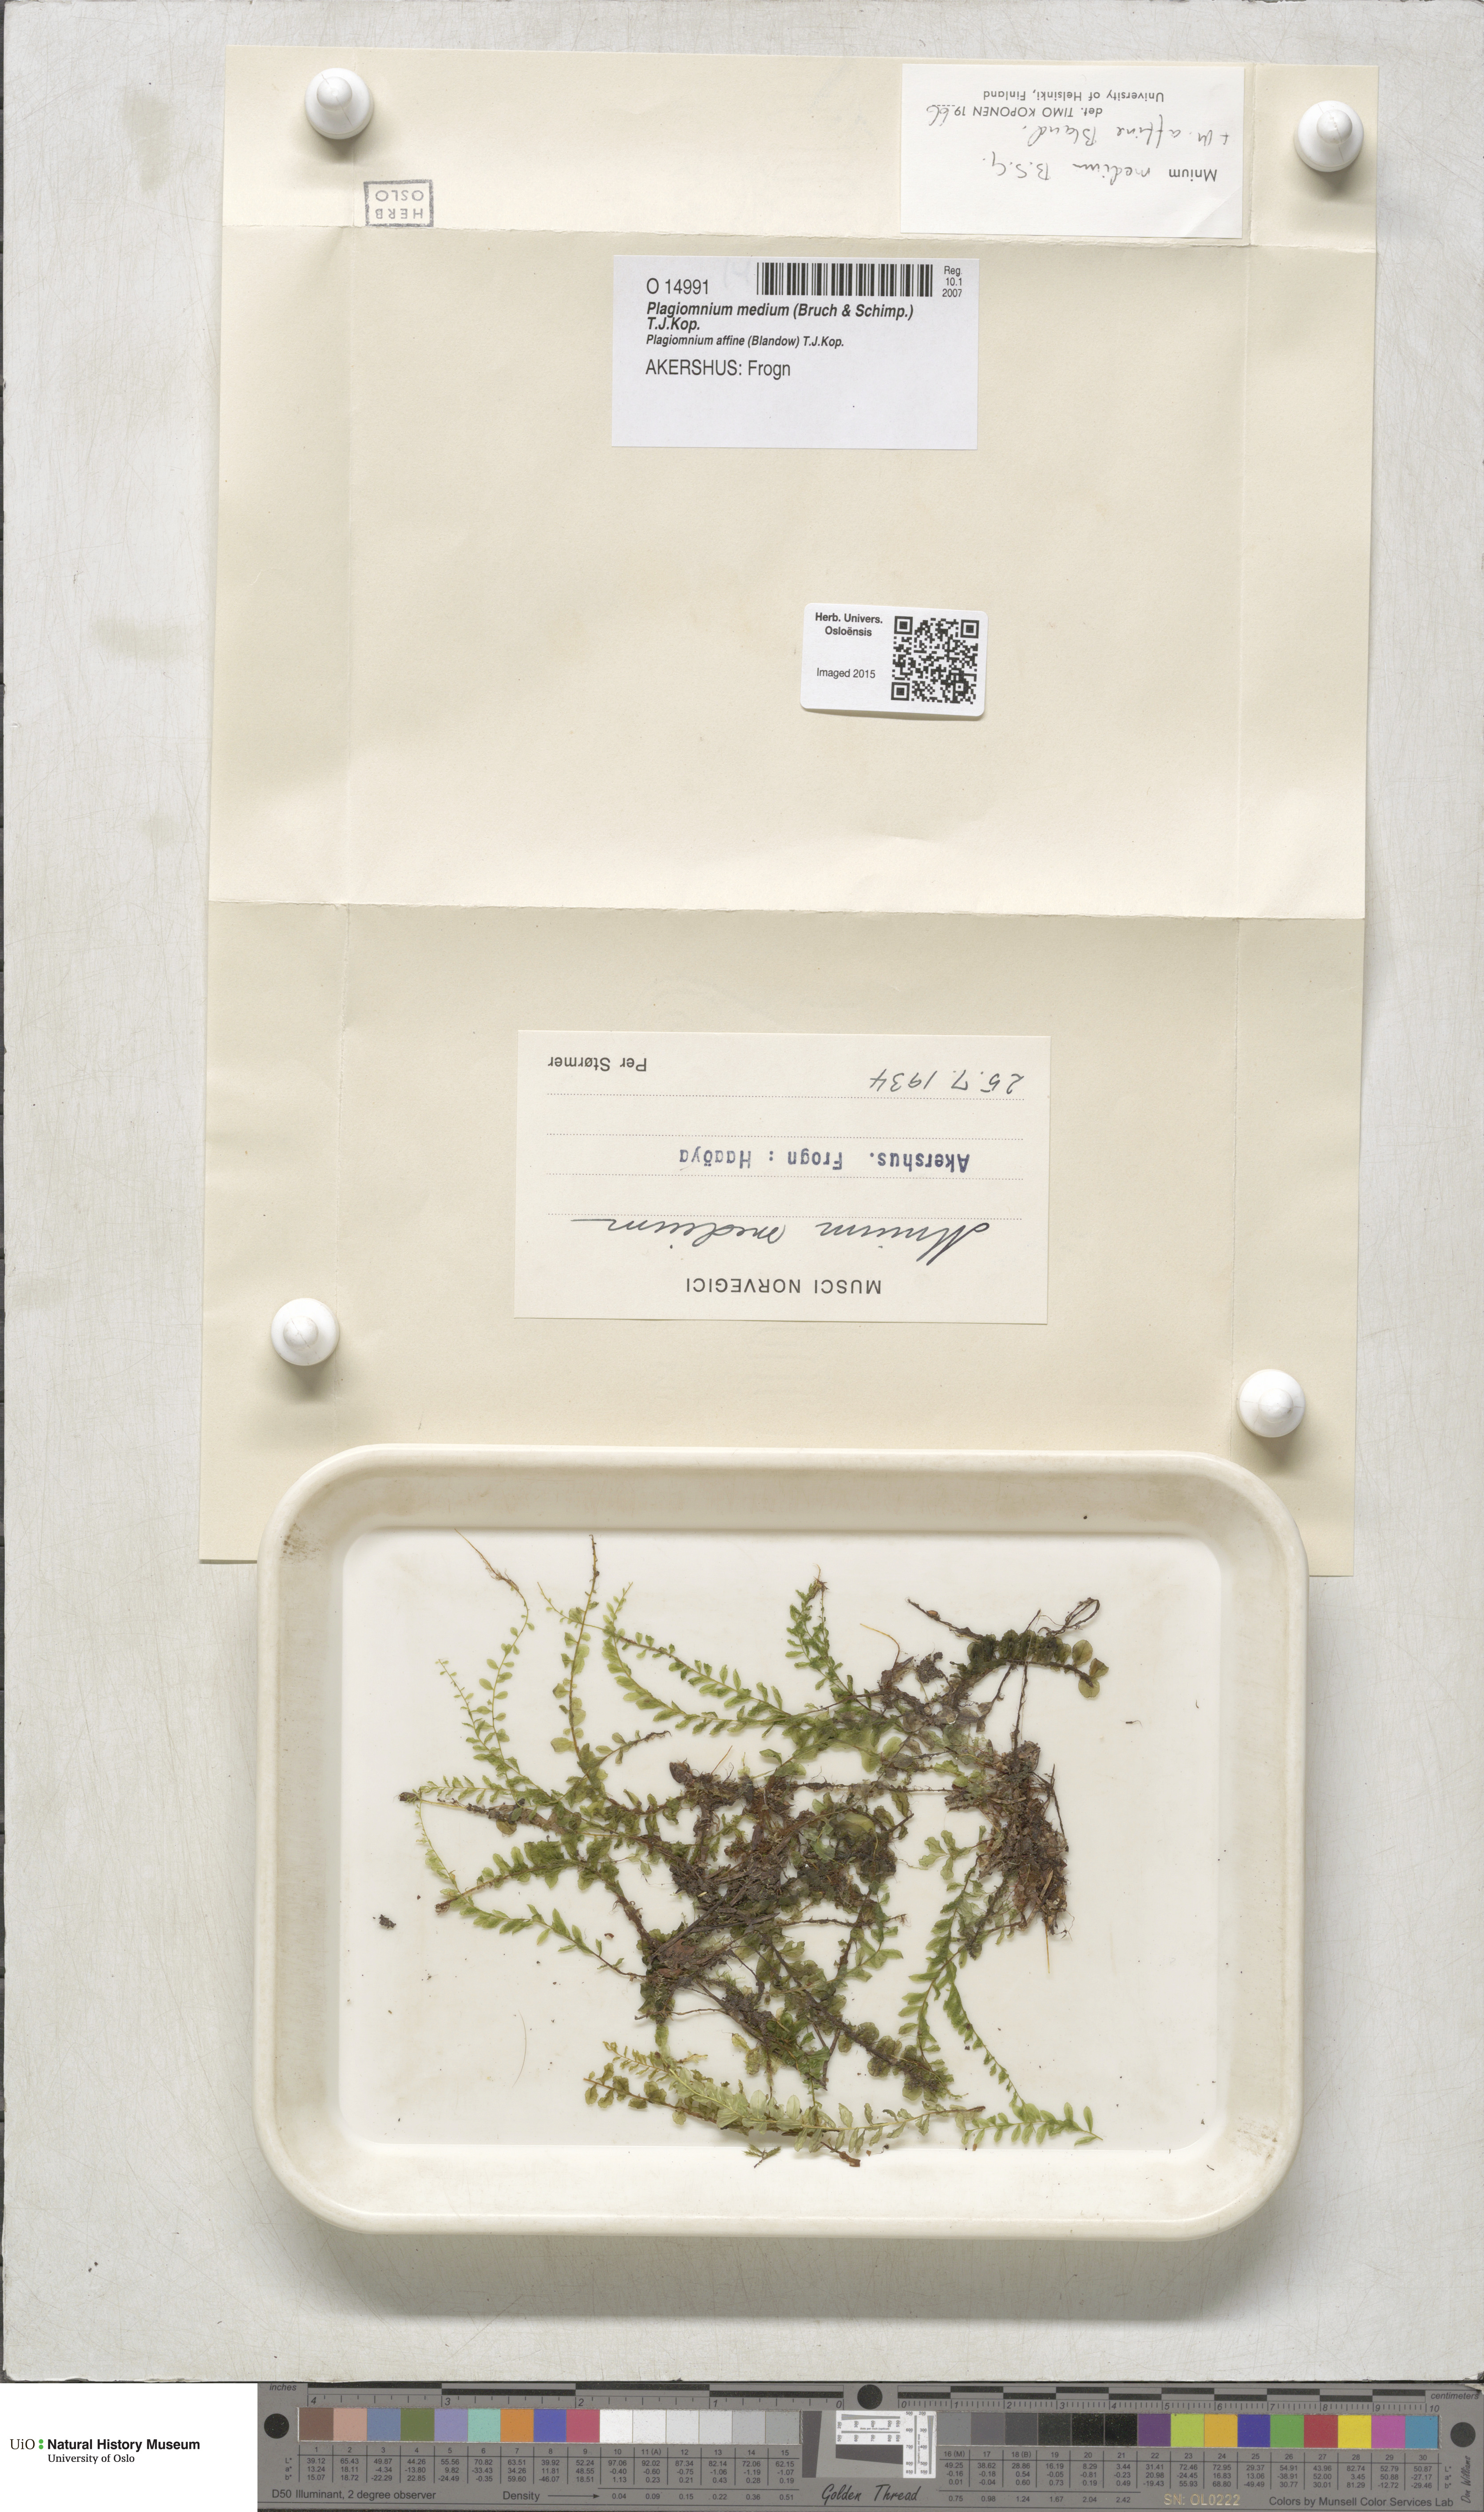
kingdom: Plantae
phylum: Bryophyta
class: Bryopsida
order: Bryales
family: Mniaceae
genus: Plagiomnium
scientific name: Plagiomnium medium
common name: Alpine leafy moss
